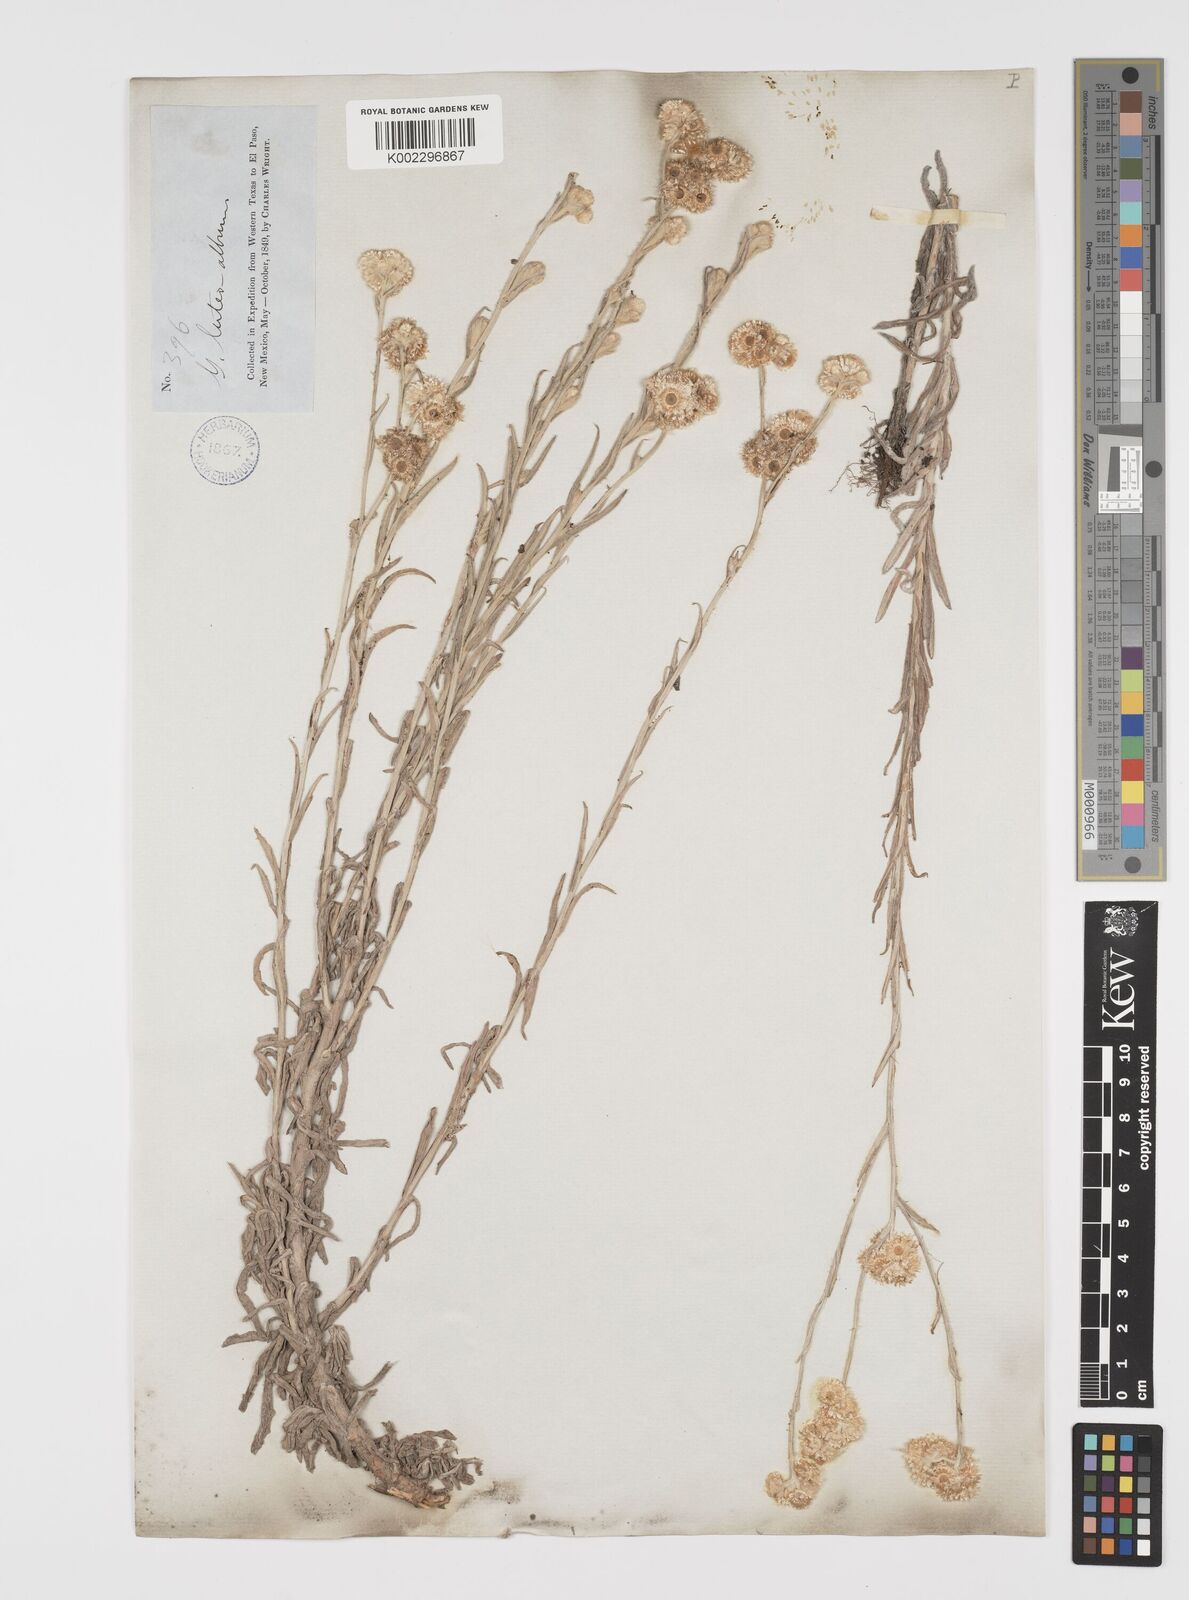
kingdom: Plantae
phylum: Tracheophyta
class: Magnoliopsida
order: Asterales
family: Asteraceae
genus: Helichrysum
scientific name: Helichrysum luteoalbum
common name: Daisy
